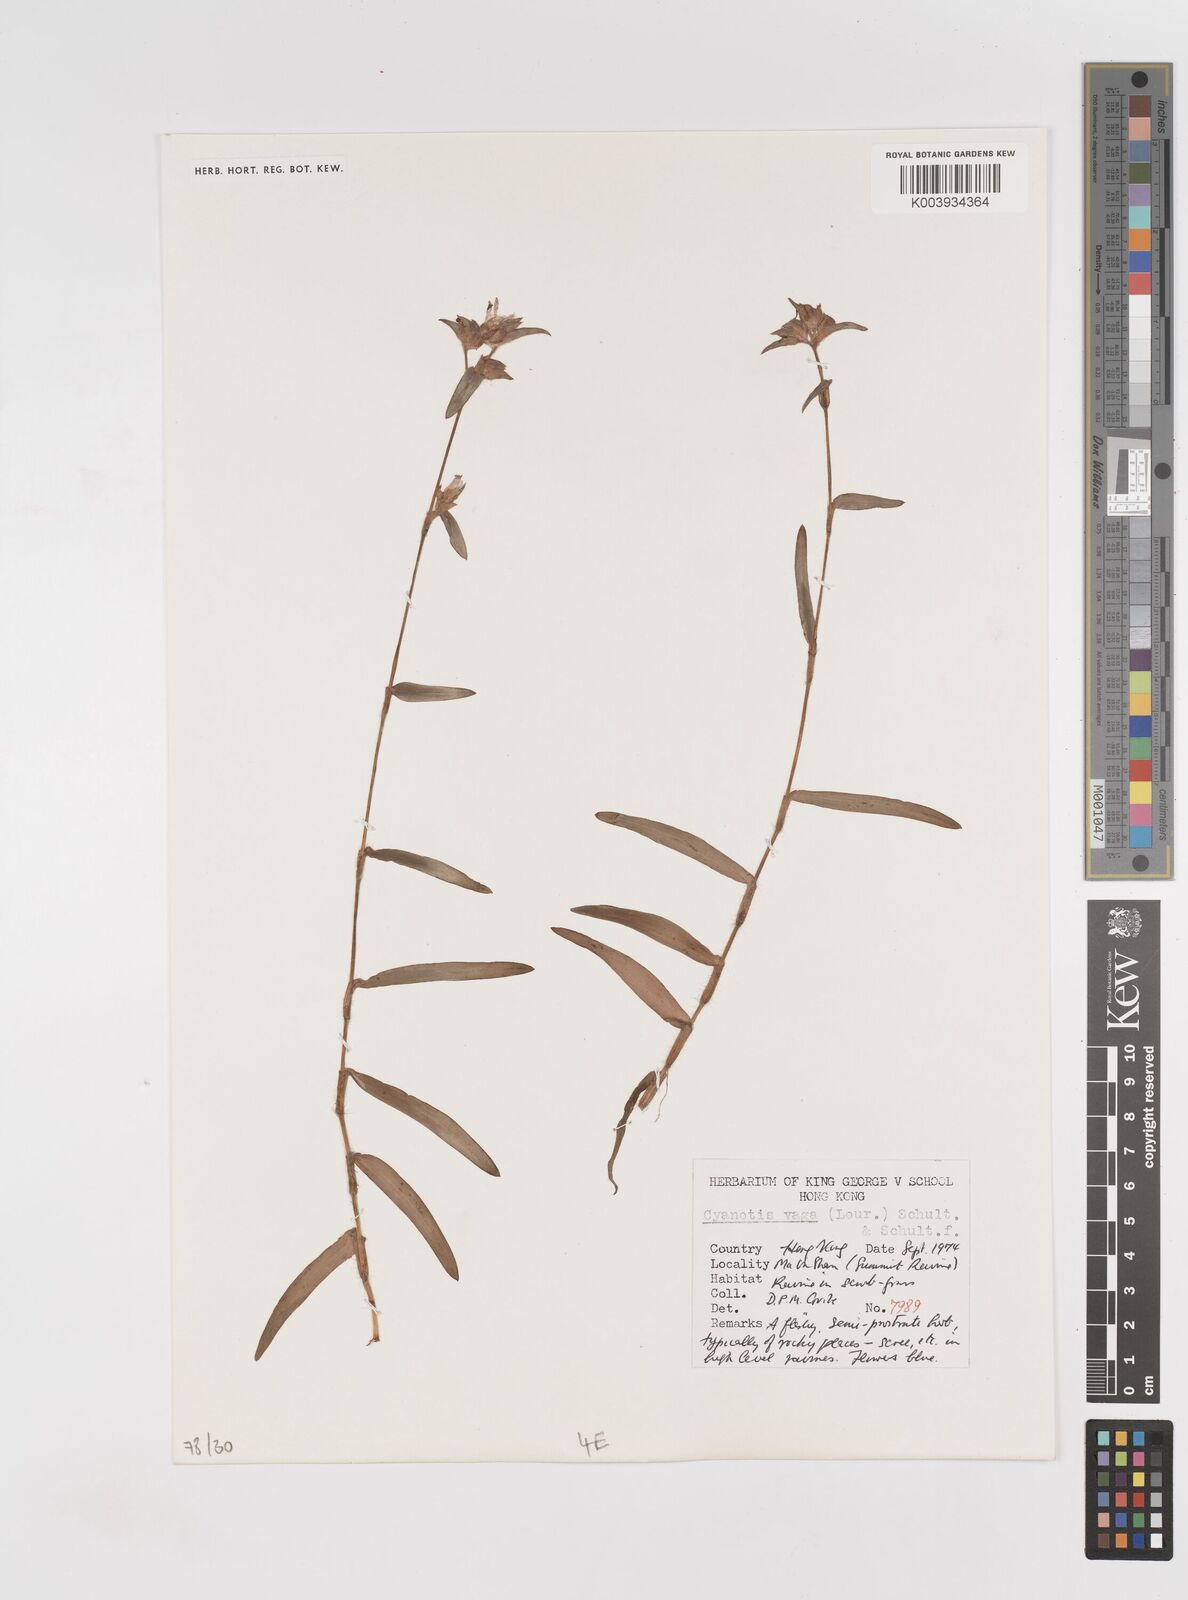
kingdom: Plantae
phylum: Tracheophyta
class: Liliopsida
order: Commelinales
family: Commelinaceae
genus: Cyanotis
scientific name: Cyanotis vaga
